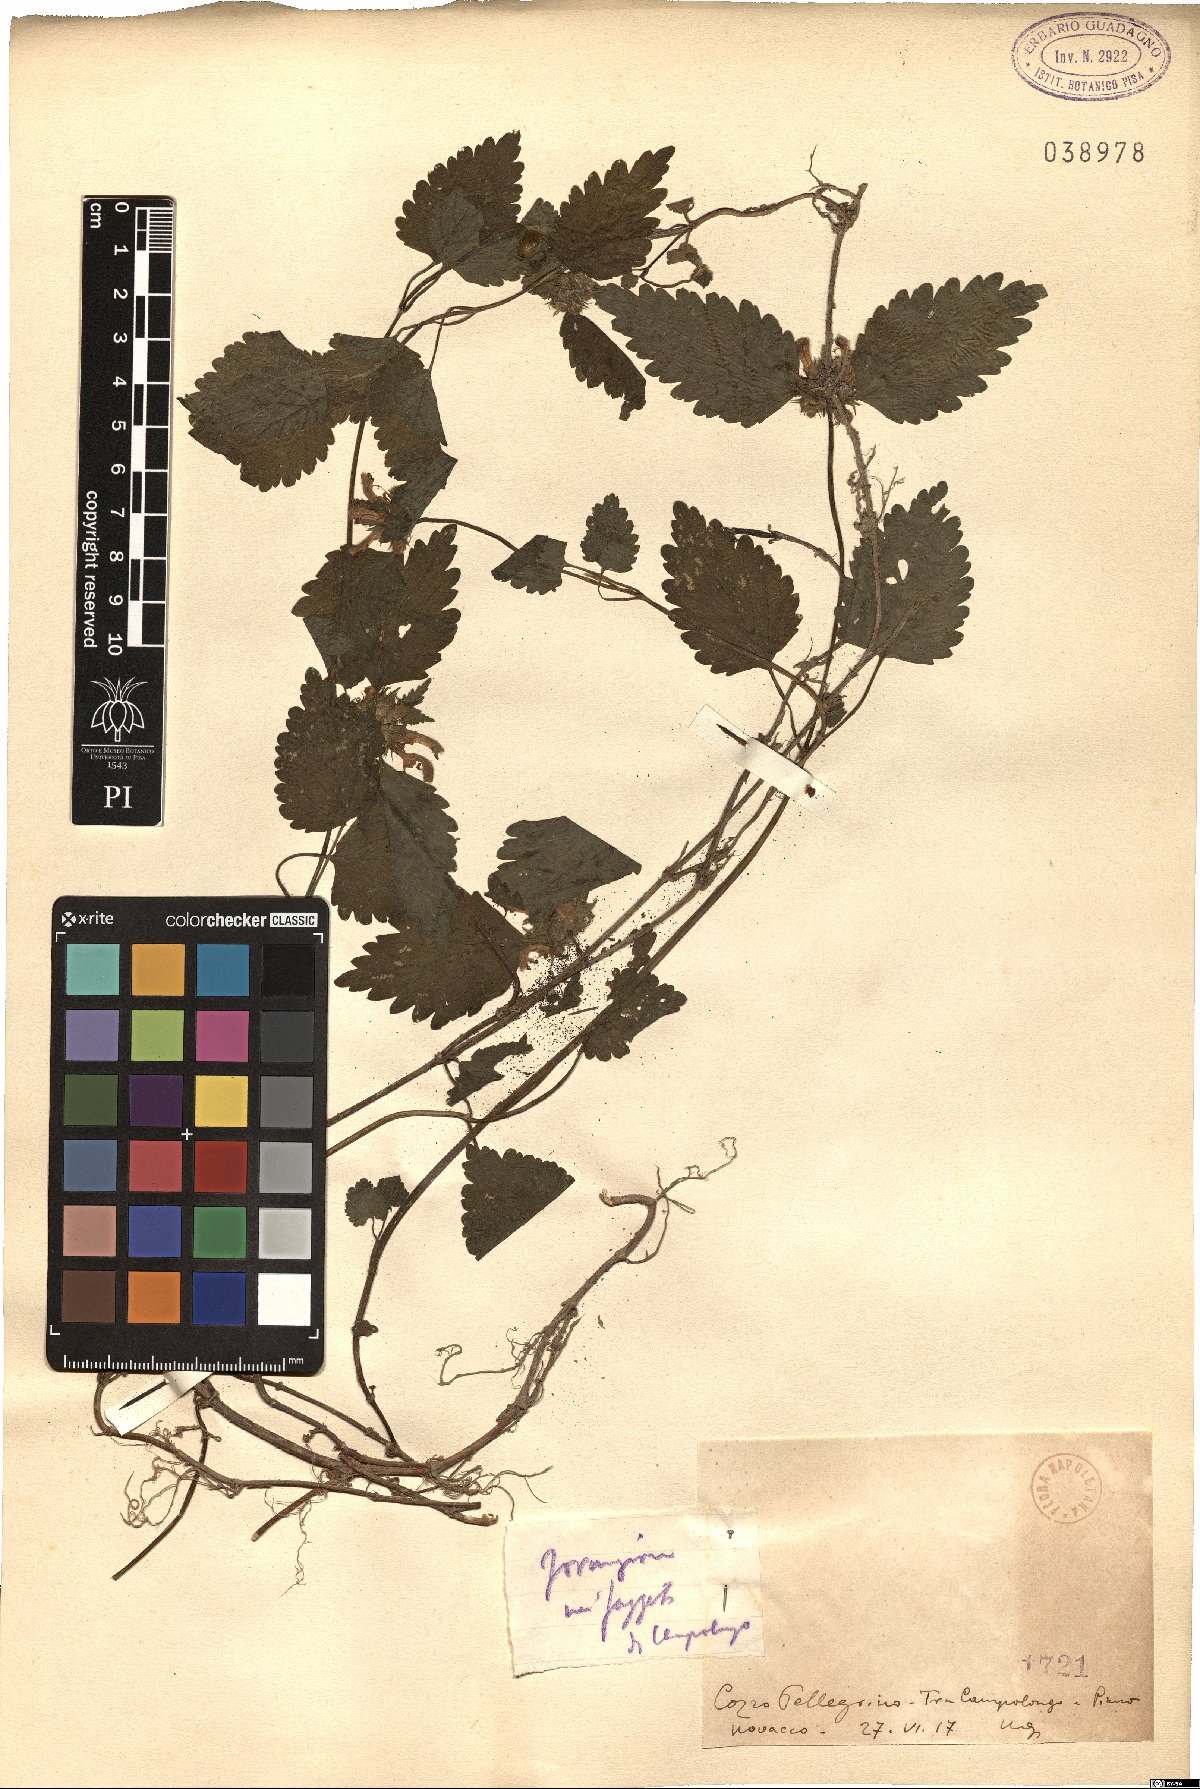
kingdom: Plantae
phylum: Tracheophyta
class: Magnoliopsida
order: Lamiales
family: Lamiaceae
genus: Lamium
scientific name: Lamium
